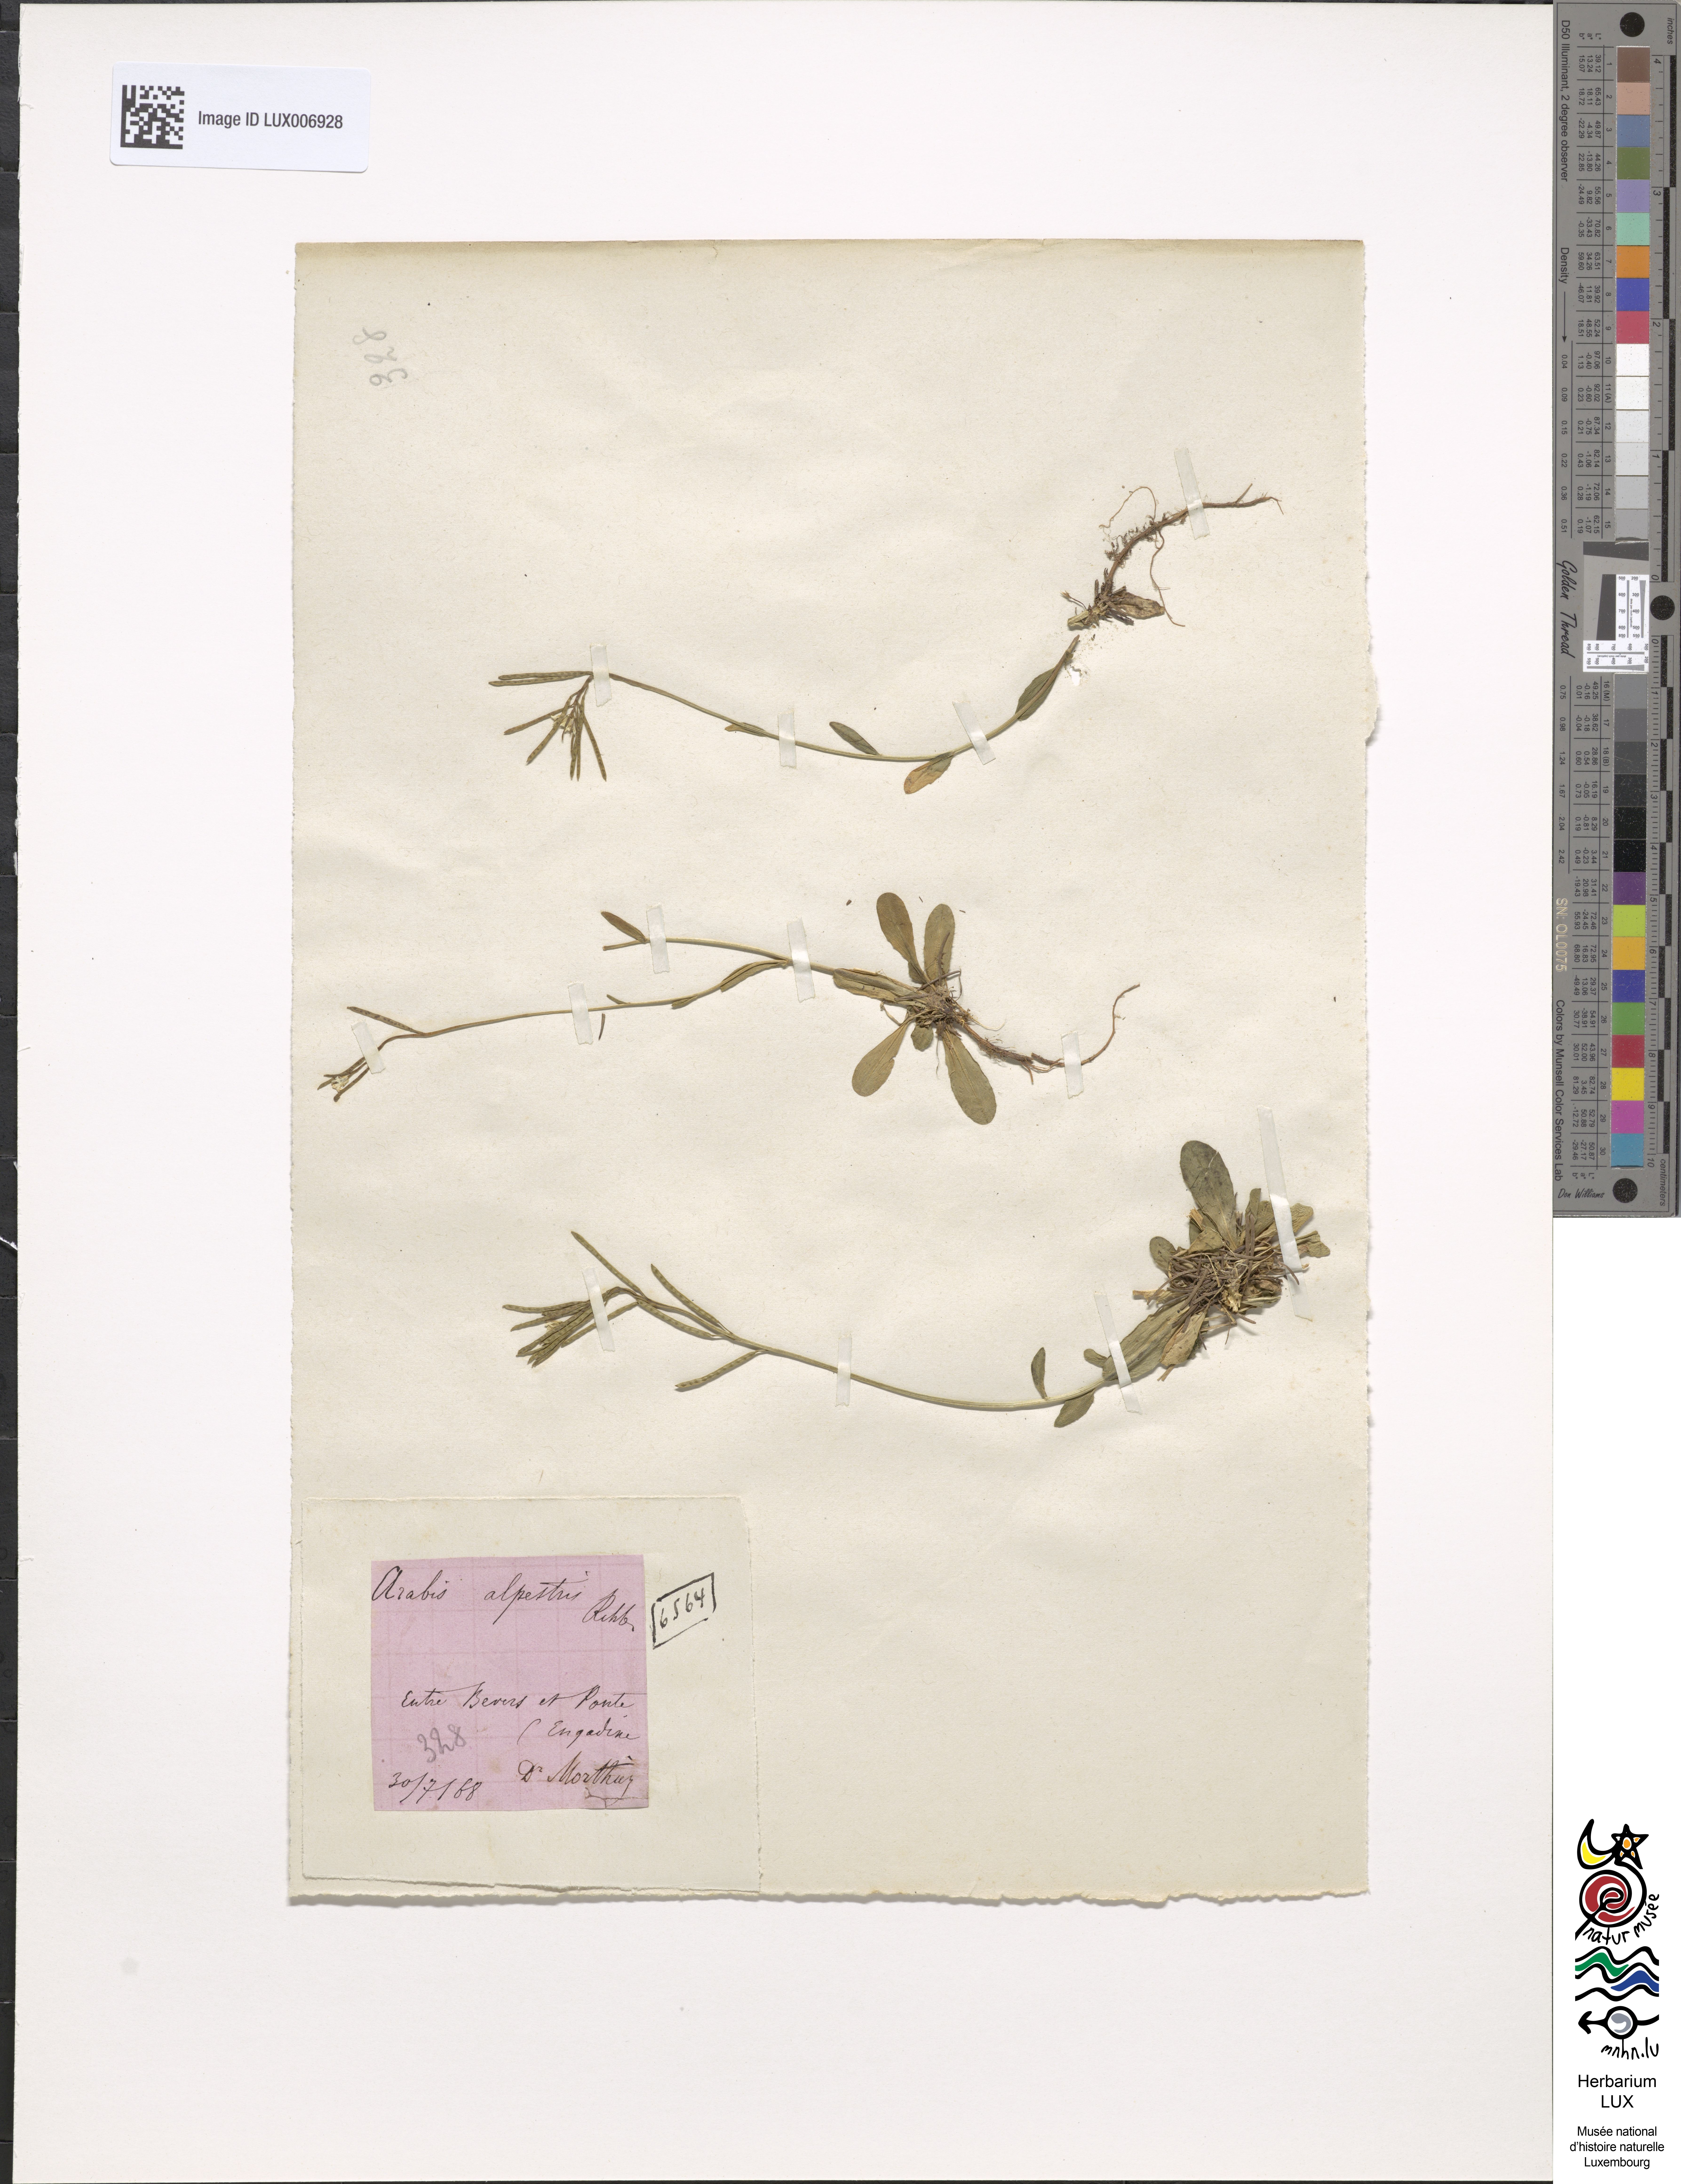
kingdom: Plantae
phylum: Tracheophyta
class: Magnoliopsida
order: Brassicales
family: Brassicaceae
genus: Arabis
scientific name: Arabis ciliata
